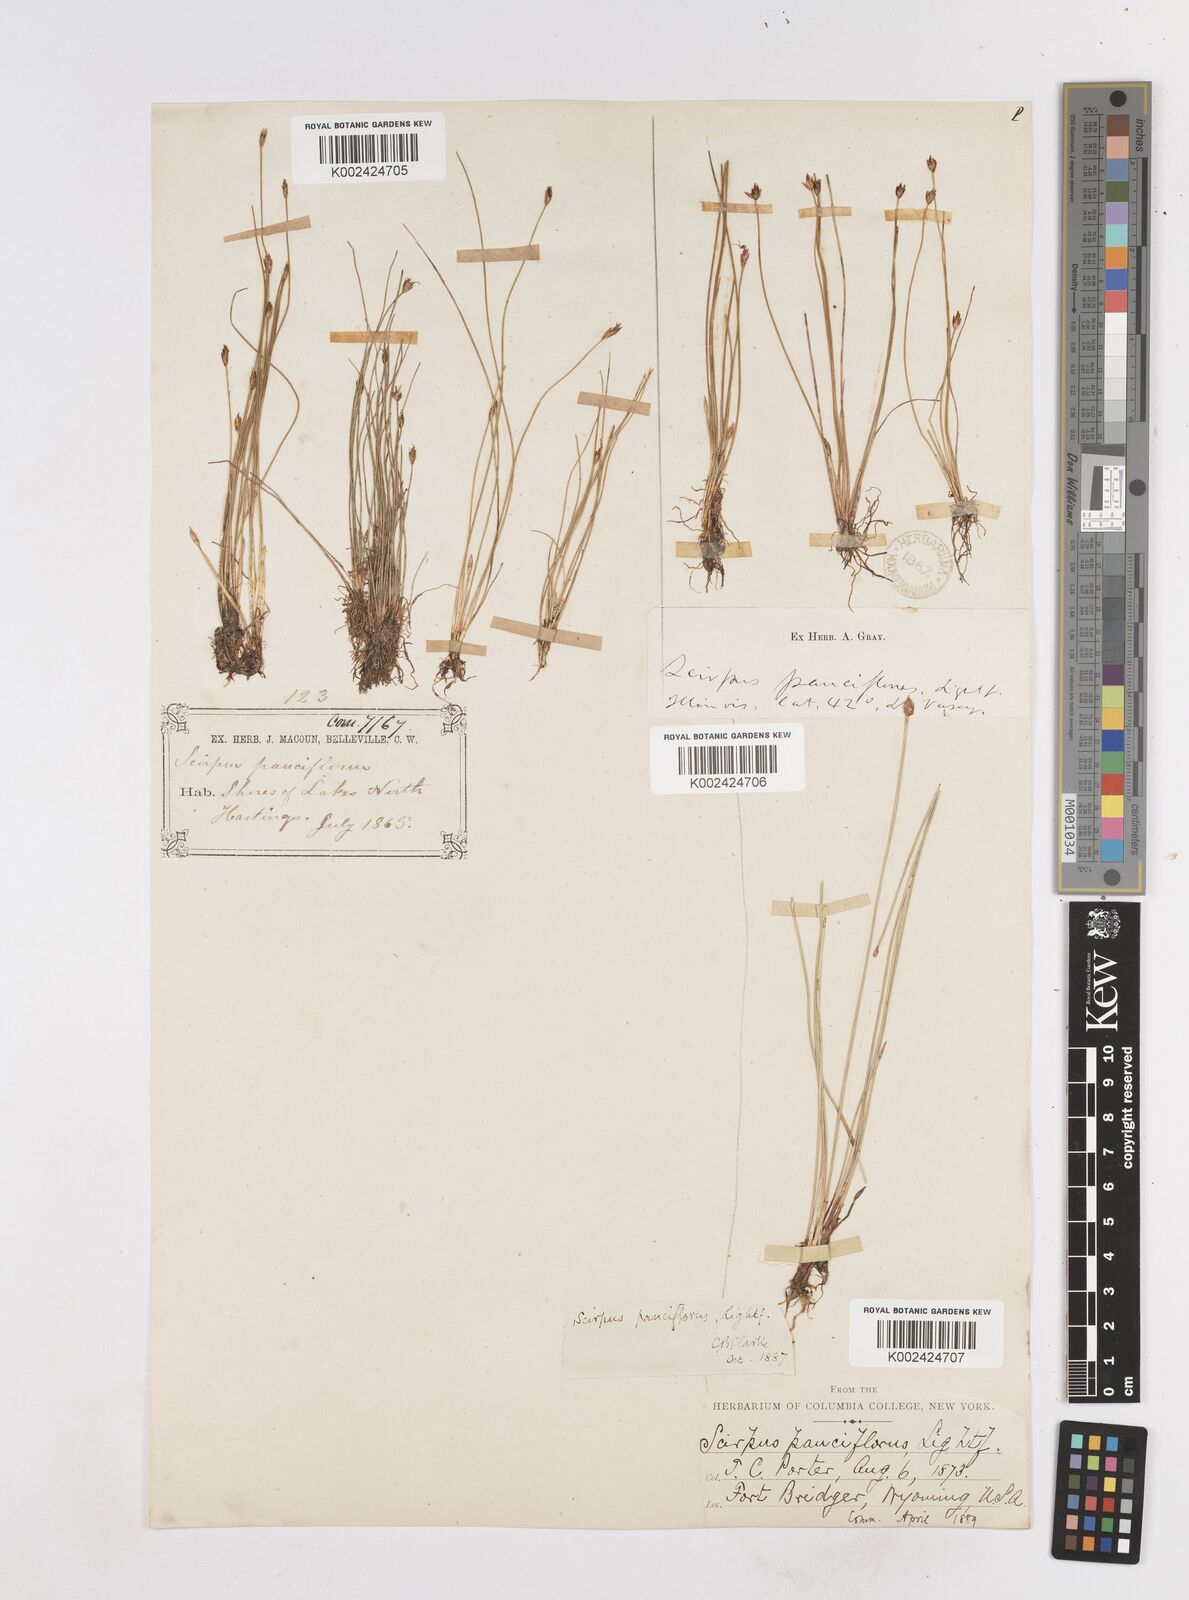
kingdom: Plantae
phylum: Tracheophyta
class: Liliopsida
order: Poales
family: Cyperaceae
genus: Eleocharis
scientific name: Eleocharis quinqueflora
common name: Few-flowered spike-rush
